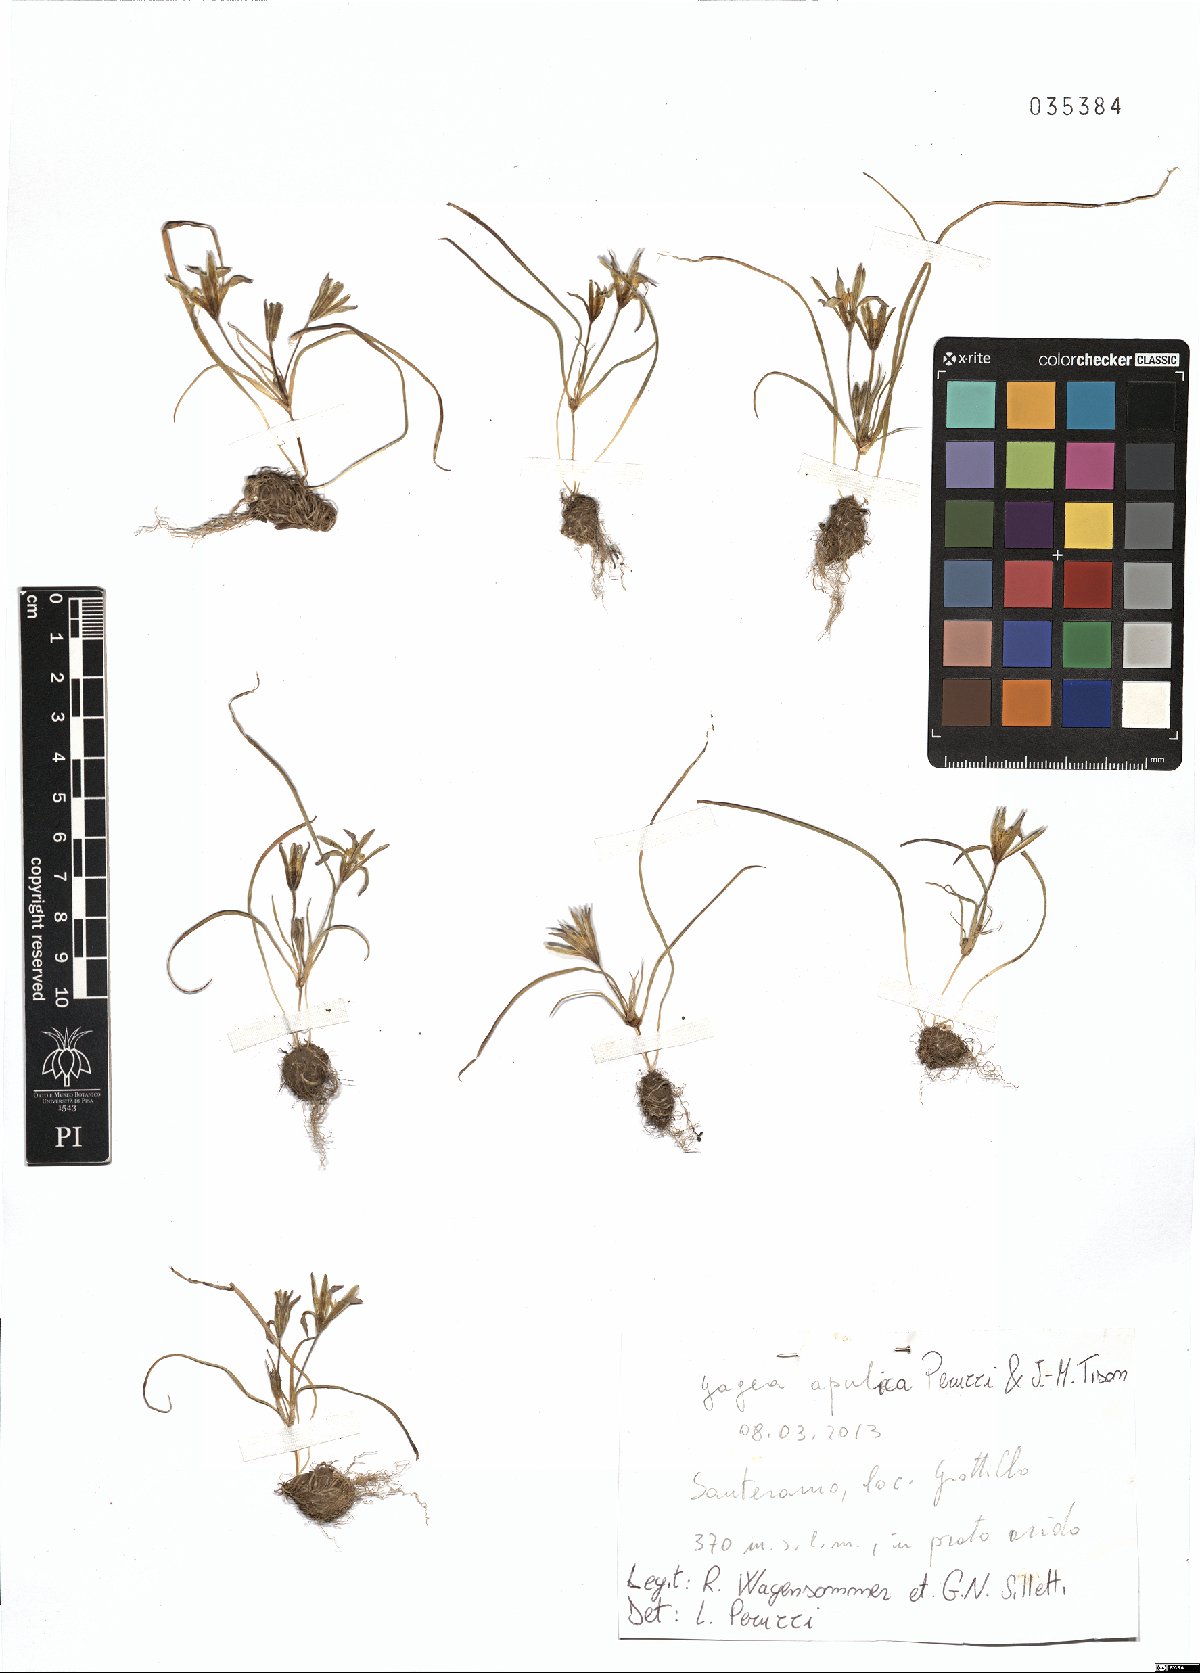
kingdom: Plantae
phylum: Tracheophyta
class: Liliopsida
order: Liliales
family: Liliaceae
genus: Gagea
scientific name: Gagea apulica
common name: Apulian gagea
